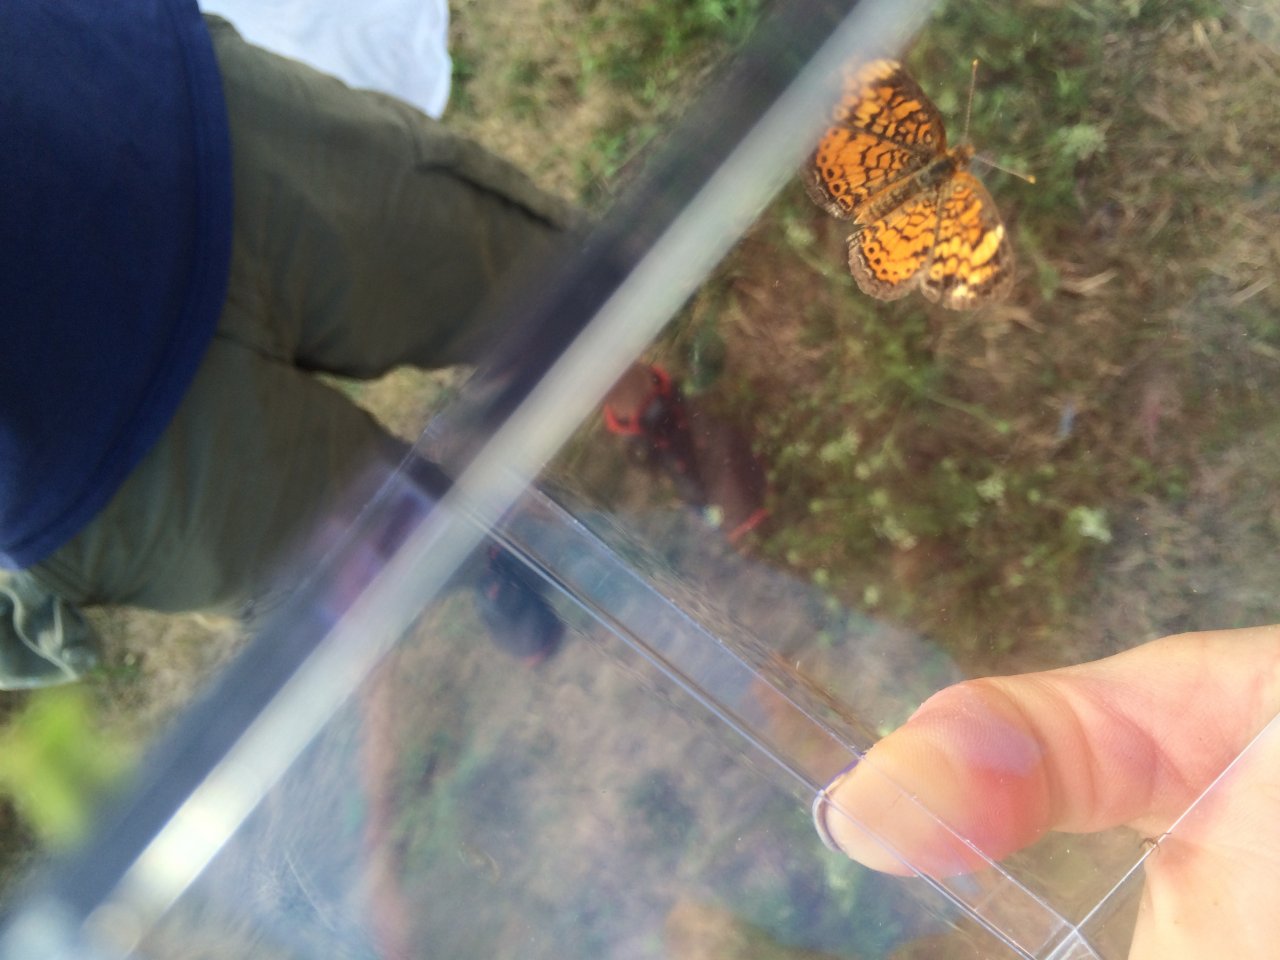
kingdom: Animalia
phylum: Arthropoda
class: Insecta
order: Lepidoptera
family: Nymphalidae
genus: Phyciodes
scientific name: Phyciodes tharos
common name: Pearl Crescent
